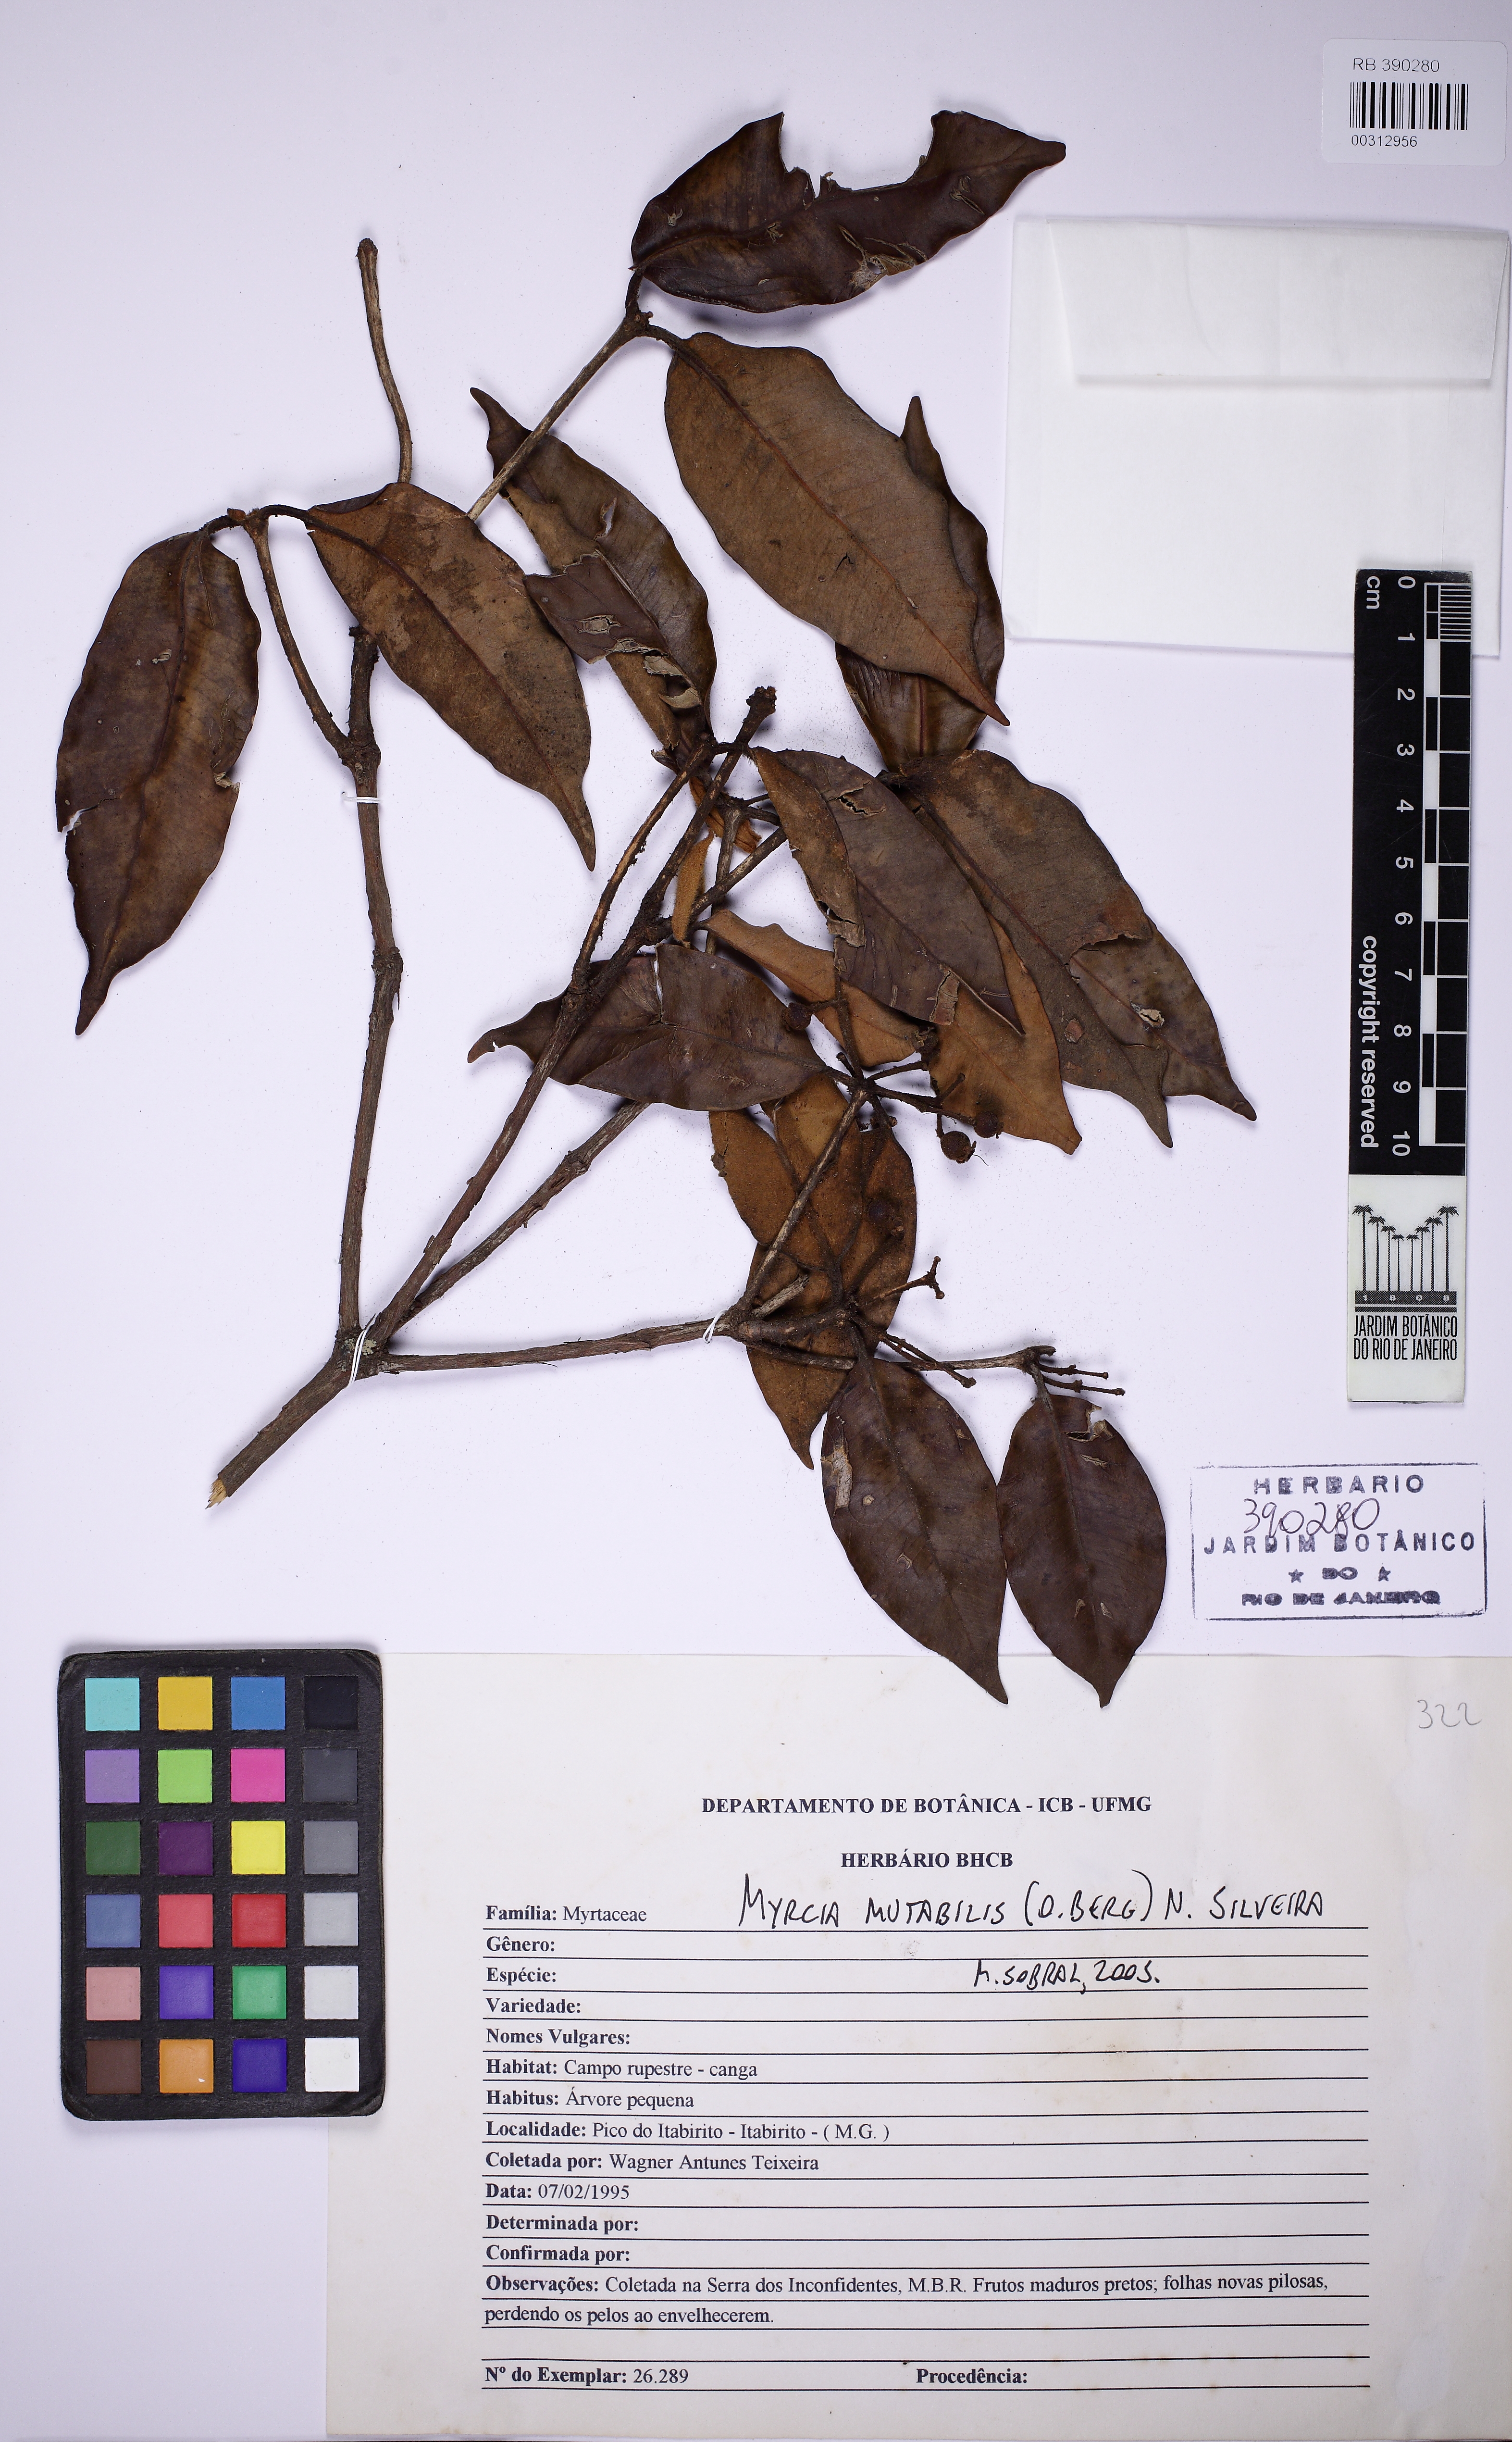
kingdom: Plantae
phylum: Tracheophyta
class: Magnoliopsida
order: Myrtales
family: Myrtaceae
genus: Myrcia
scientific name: Myrcia mutabilis
